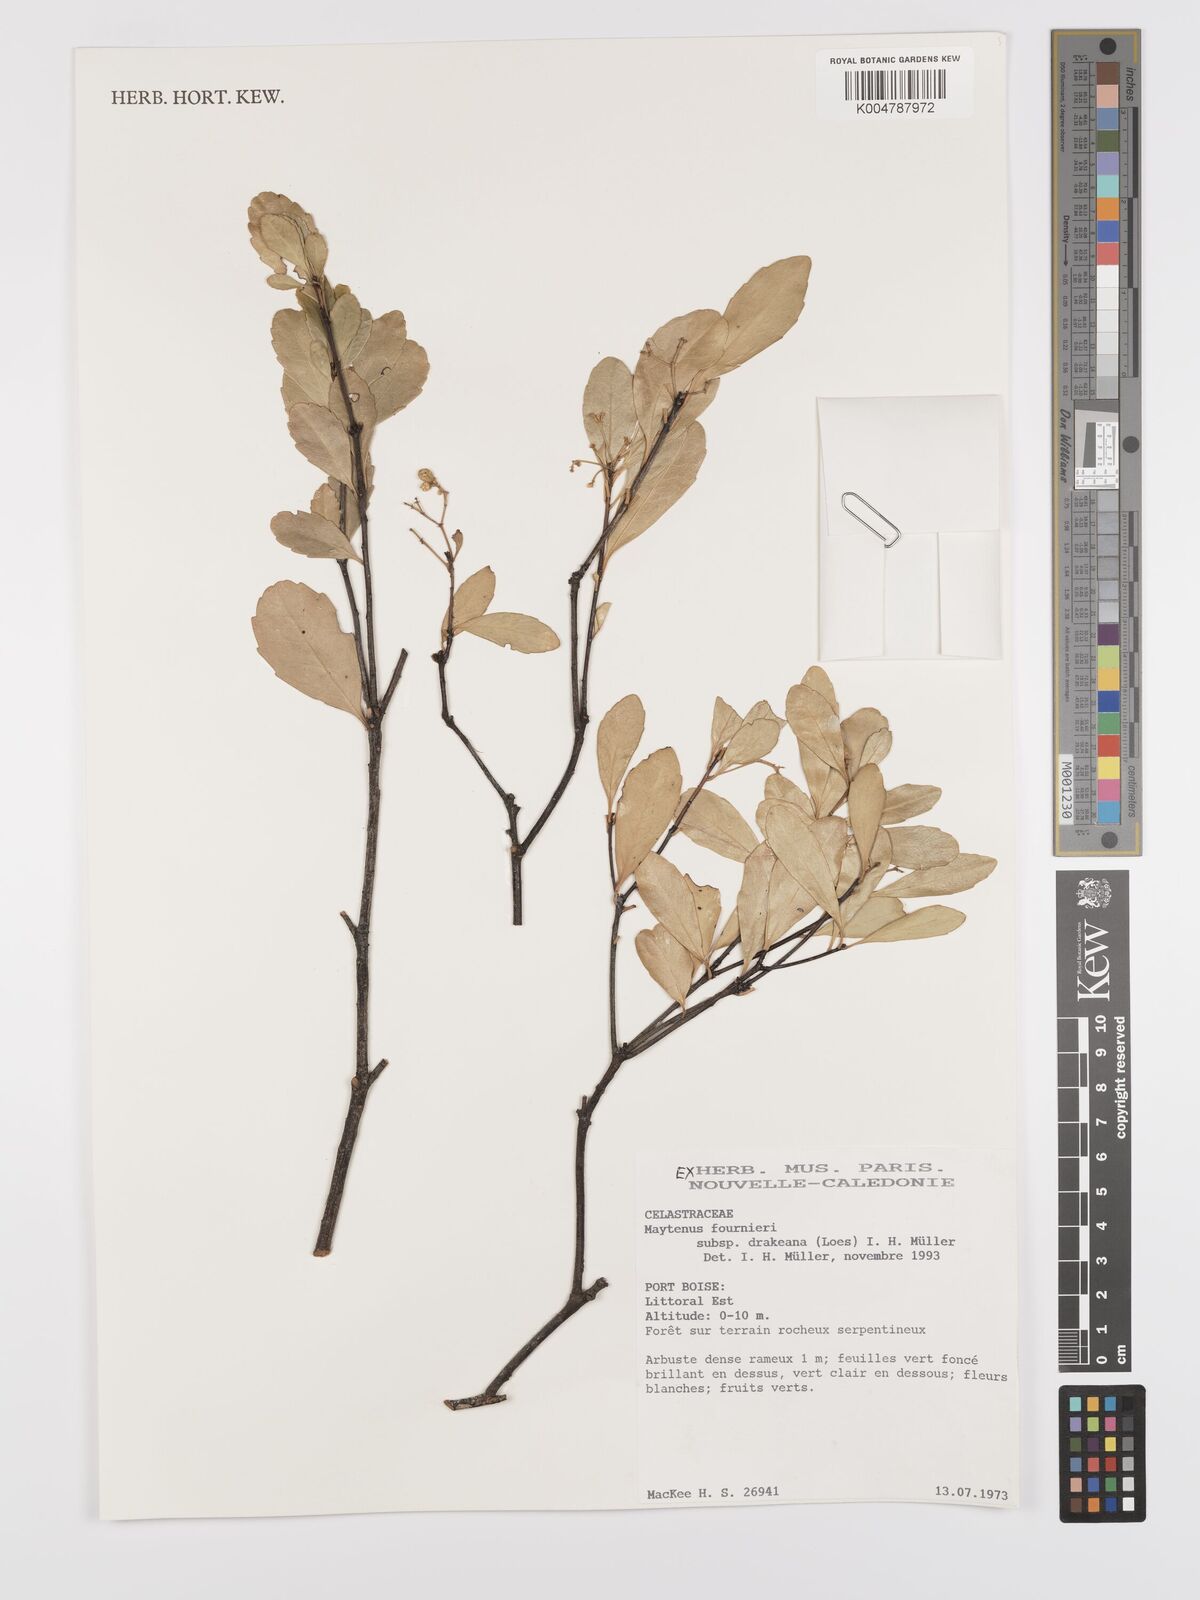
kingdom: Plantae
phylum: Tracheophyta
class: Magnoliopsida
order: Celastrales
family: Celastraceae
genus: Denhamia
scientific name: Denhamia fournieri
